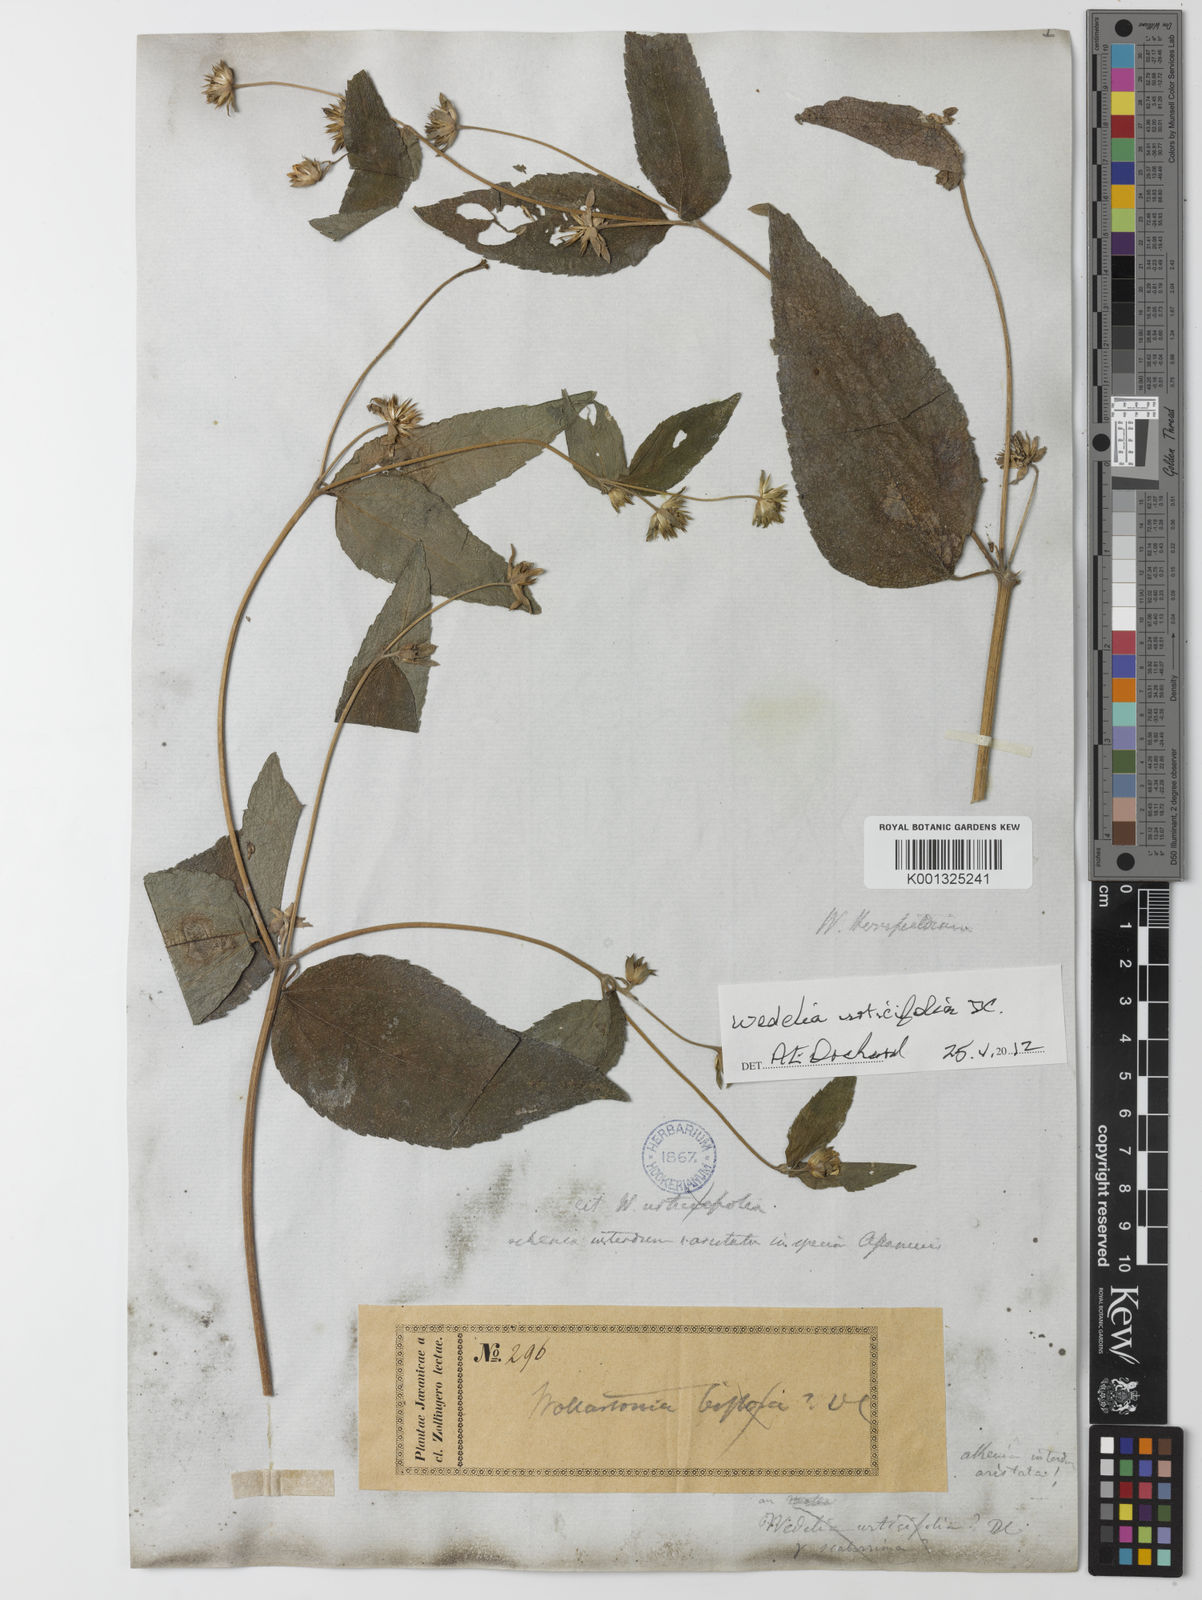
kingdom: Plantae
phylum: Tracheophyta
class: Magnoliopsida
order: Asterales
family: Asteraceae
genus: Lipoblepharis
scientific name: Lipoblepharis urticifolia
